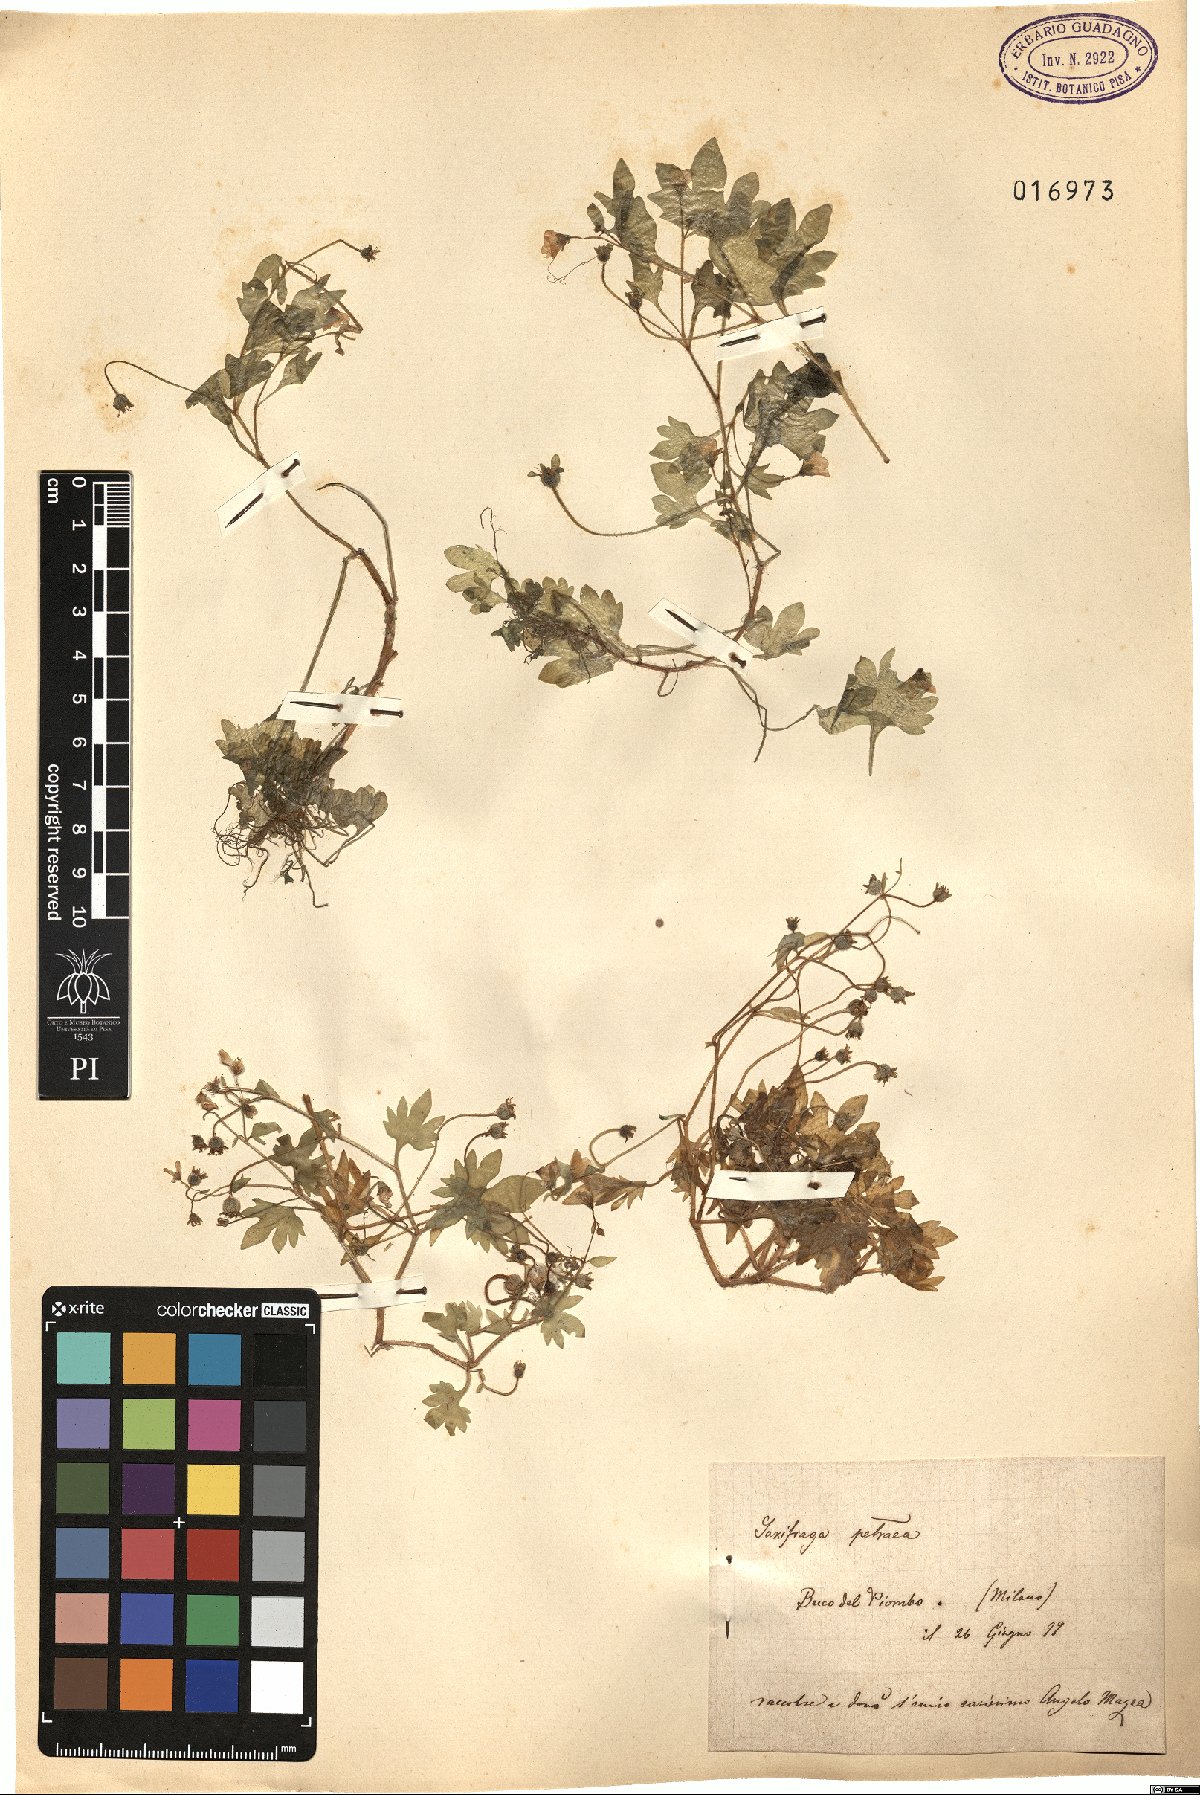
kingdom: Plantae
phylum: Tracheophyta
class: Magnoliopsida
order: Saxifragales
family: Saxifragaceae
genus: Saxifraga
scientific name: Saxifraga petraea
